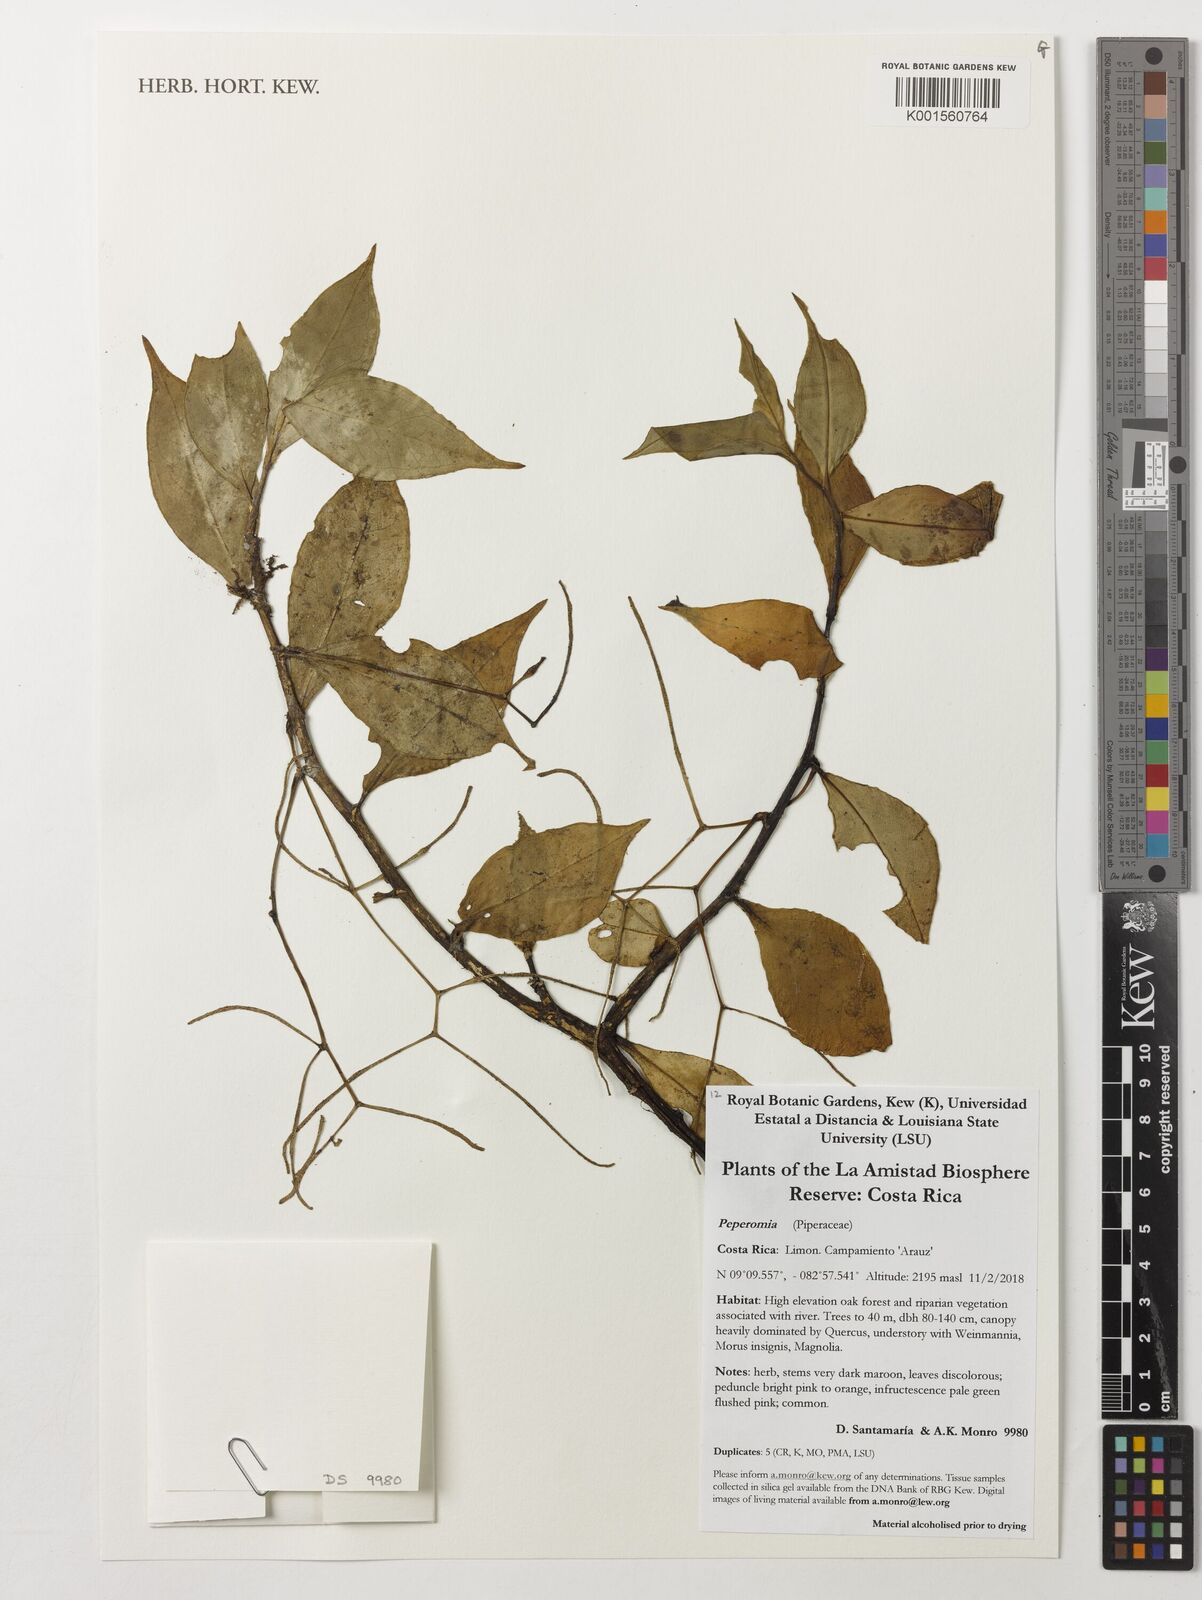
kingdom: Plantae
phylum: Tracheophyta
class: Magnoliopsida
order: Piperales
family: Piperaceae
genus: Peperomia
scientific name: Peperomia
